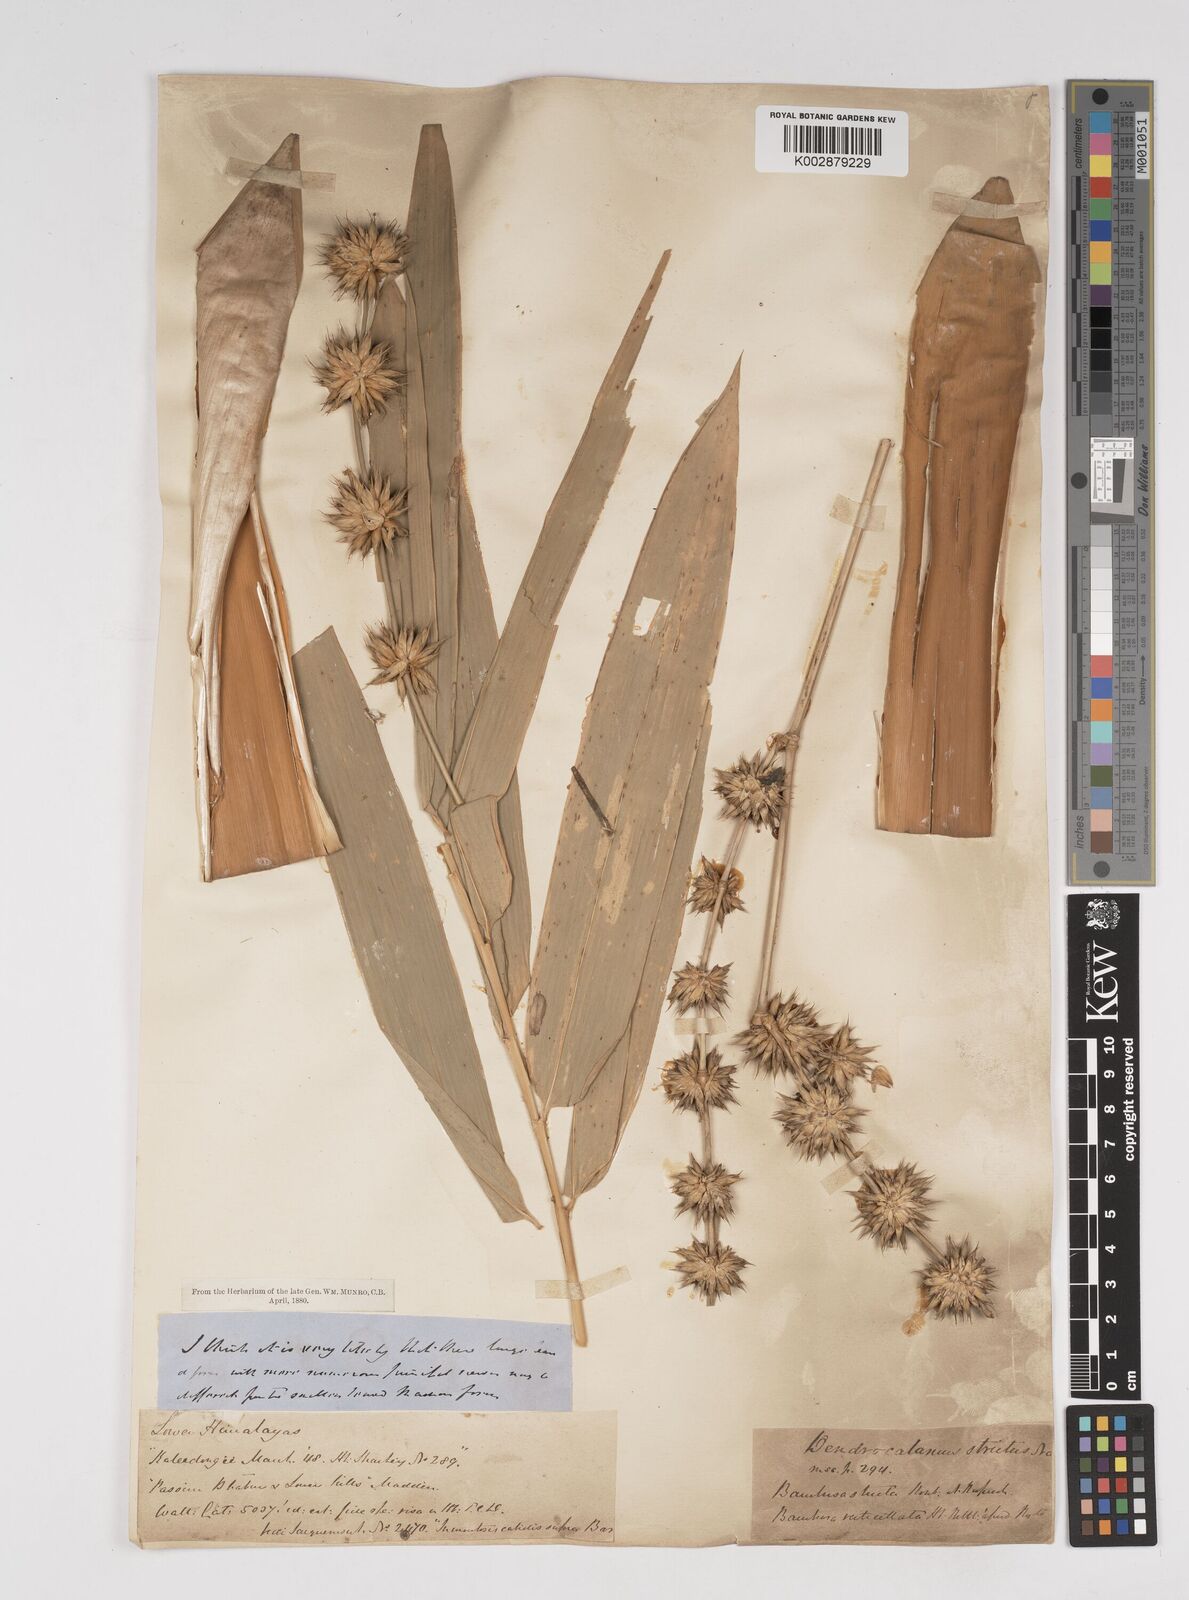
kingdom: Plantae
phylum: Tracheophyta
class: Liliopsida
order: Poales
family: Poaceae
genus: Dendrocalamus
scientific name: Dendrocalamus strictus
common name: Male bamboo
